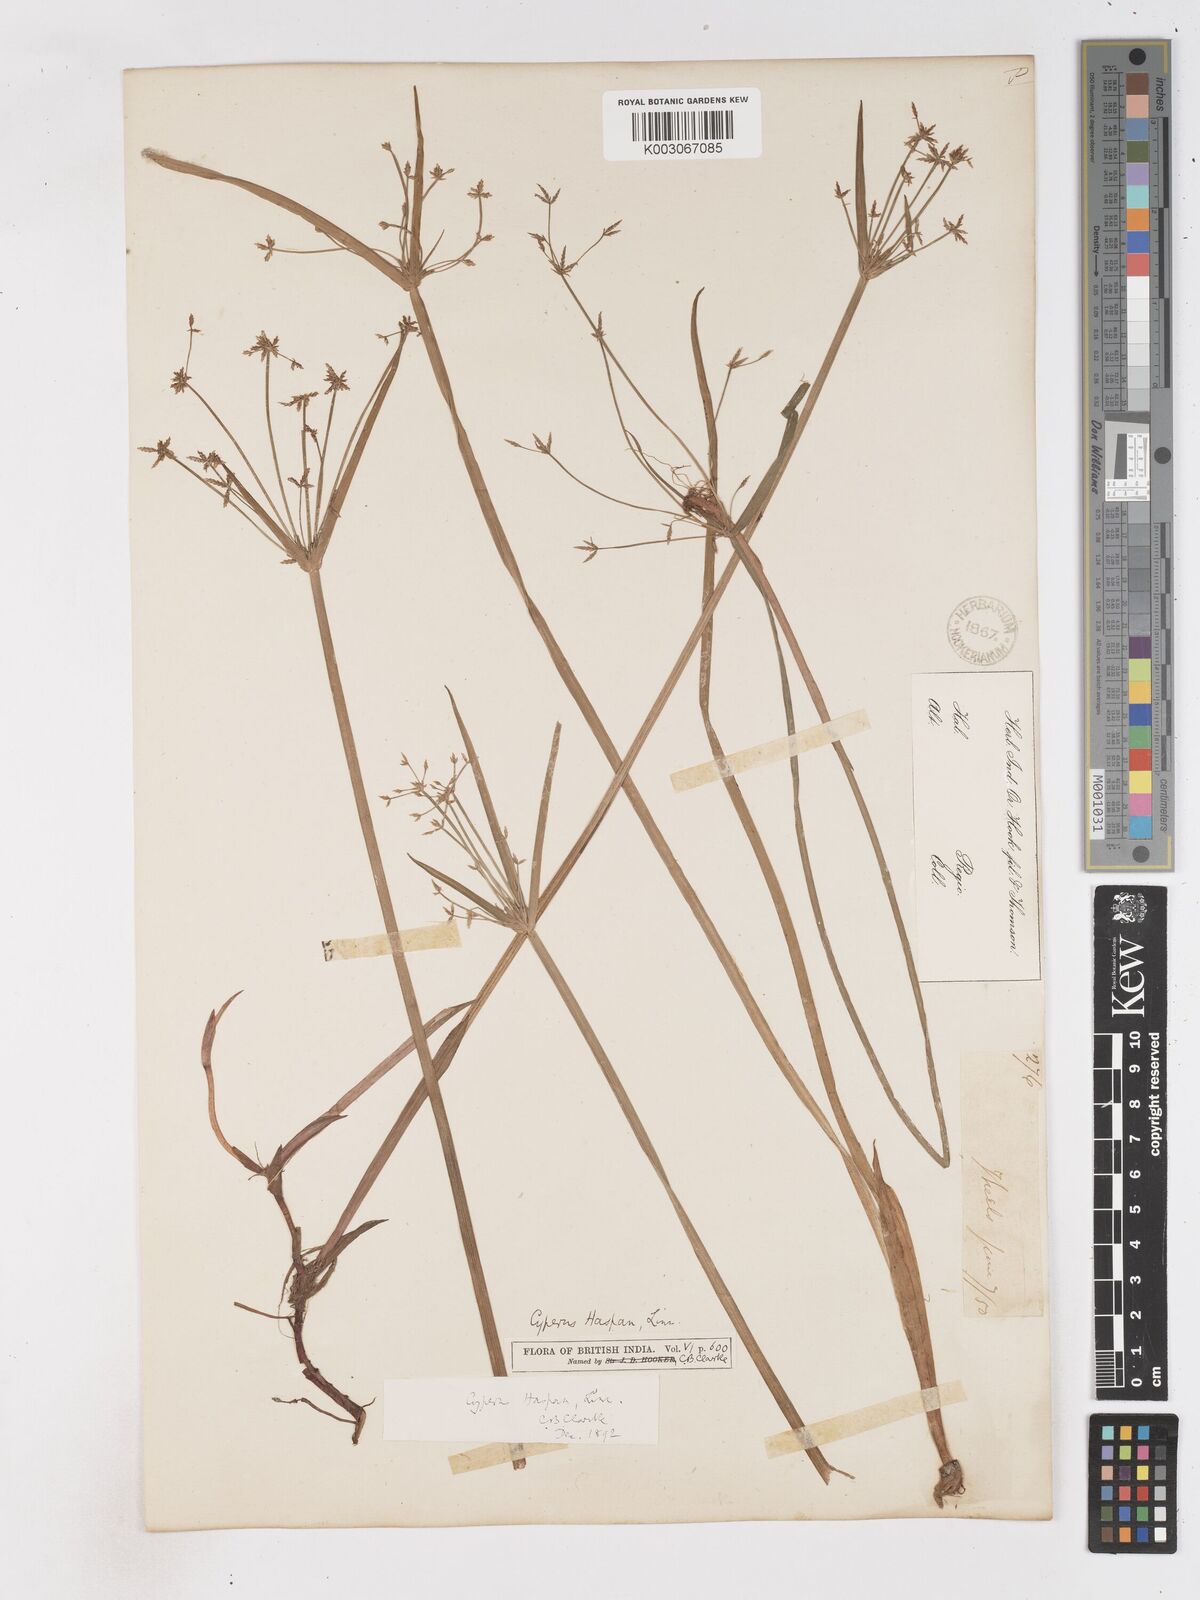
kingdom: Plantae
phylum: Tracheophyta
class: Liliopsida
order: Poales
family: Cyperaceae
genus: Cyperus
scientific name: Cyperus haspan
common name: Haspan flatsedge
